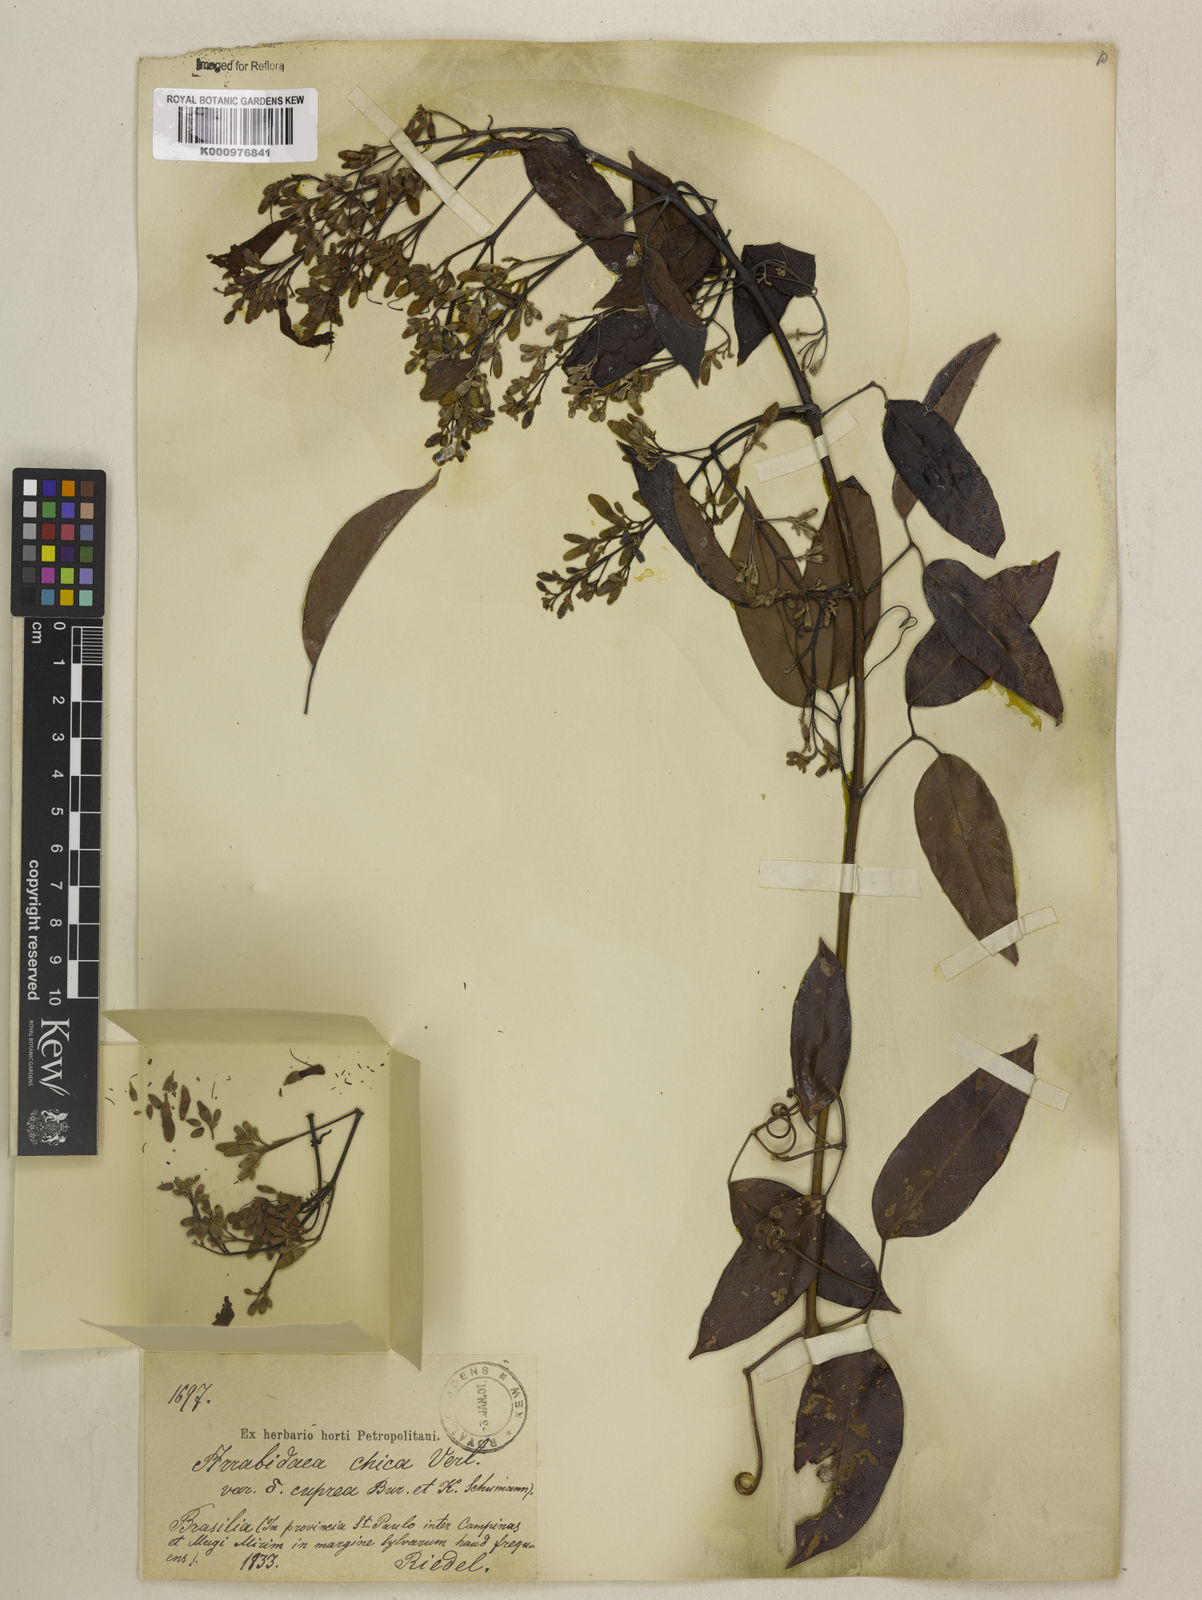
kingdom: Plantae
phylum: Tracheophyta
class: Magnoliopsida
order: Lamiales
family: Bignoniaceae
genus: Fridericia
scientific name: Fridericia chica
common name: Cricketvine
